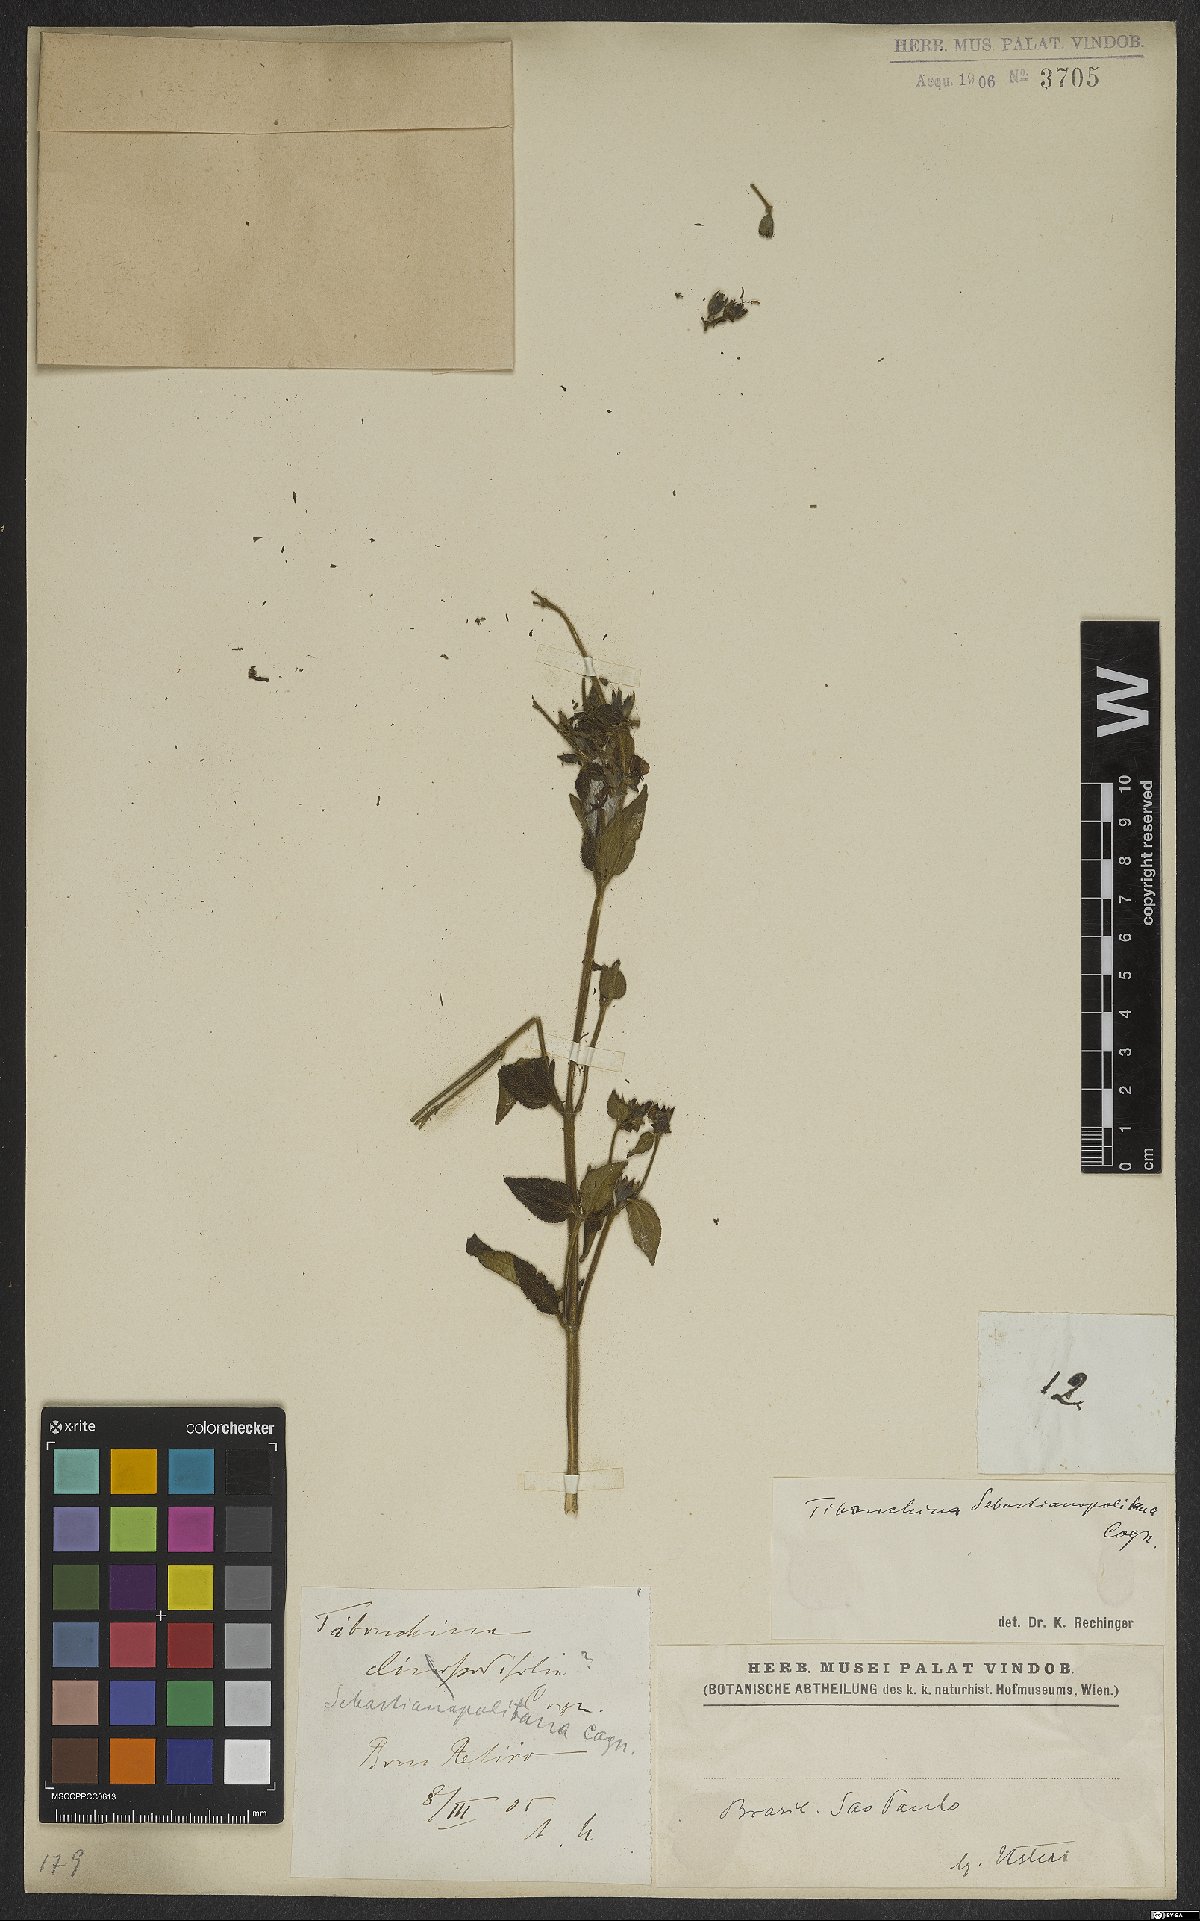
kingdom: Plantae
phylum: Tracheophyta
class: Magnoliopsida
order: Myrtales
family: Melastomataceae
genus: Chaetogastra
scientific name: Chaetogastra sebastianopolitana
